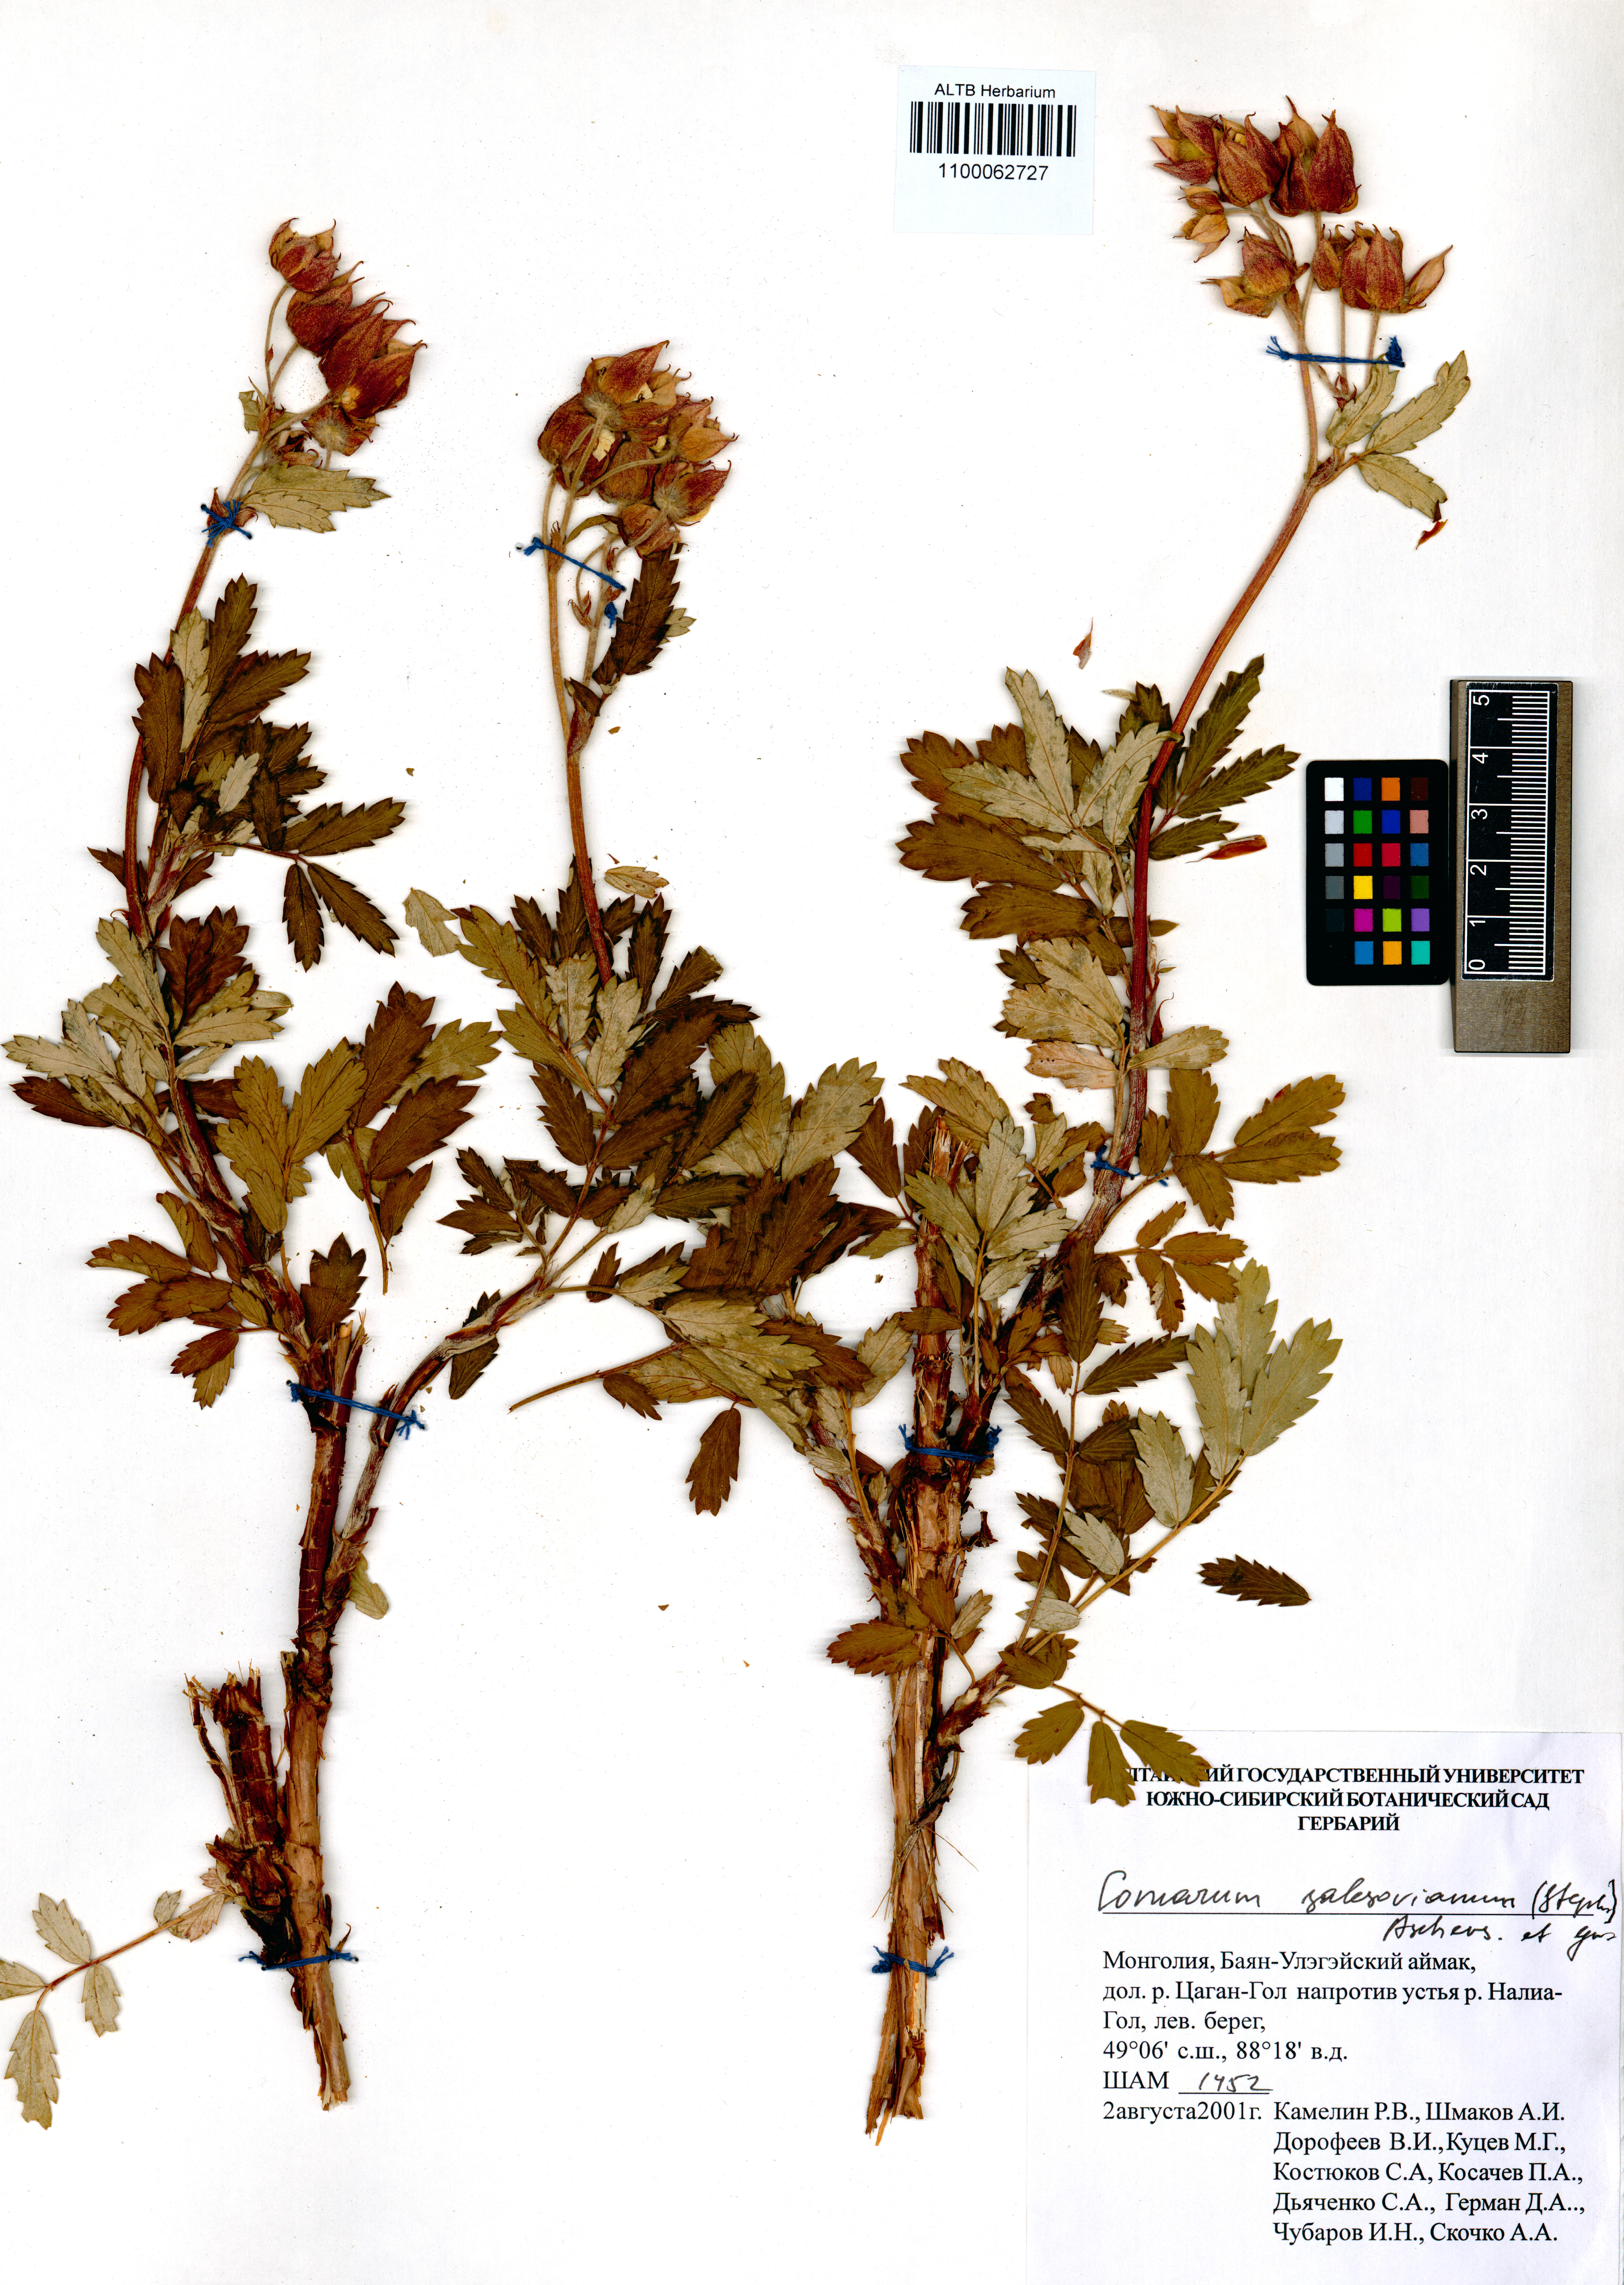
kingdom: Plantae
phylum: Tracheophyta
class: Magnoliopsida
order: Rosales
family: Rosaceae
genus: Farinopsis
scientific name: Farinopsis salesoviana
